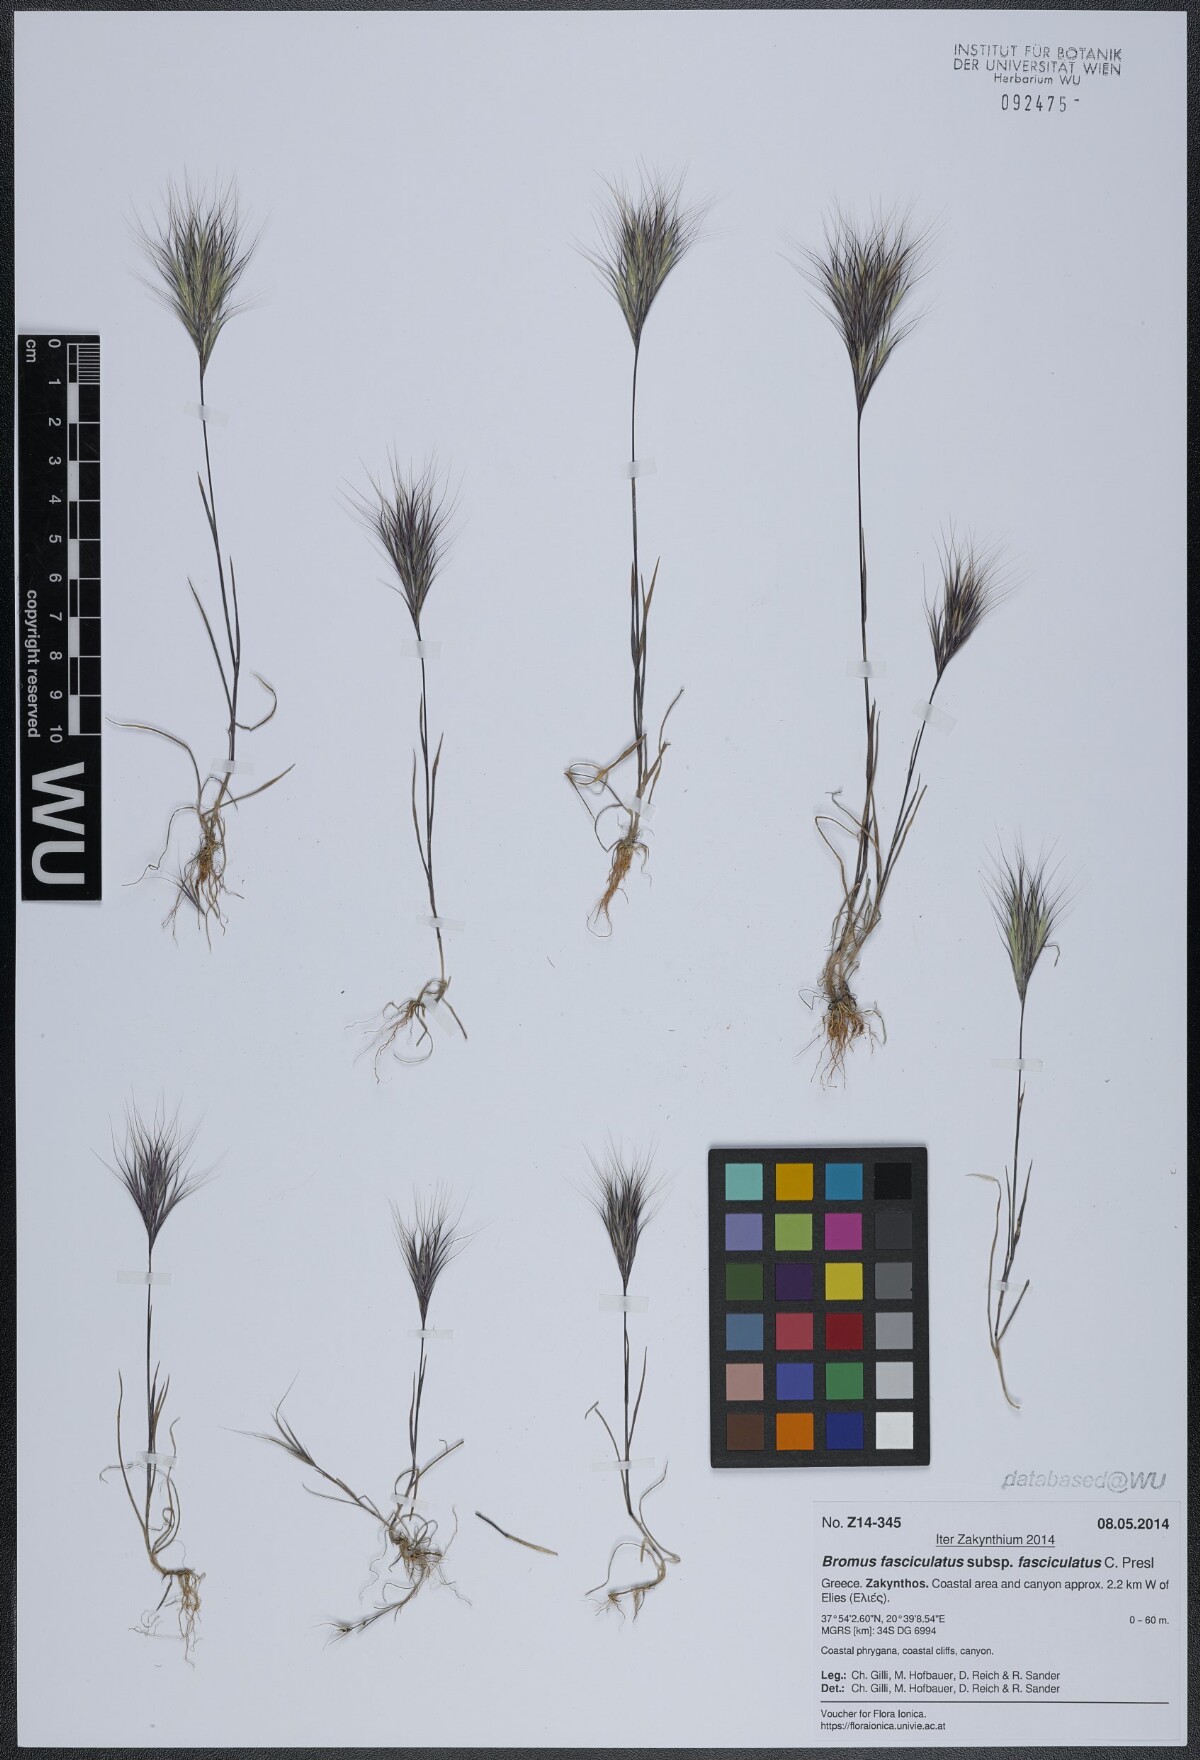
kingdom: Plantae
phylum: Tracheophyta
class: Liliopsida
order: Poales
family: Poaceae
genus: Bromus
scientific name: Bromus fasciculatus
